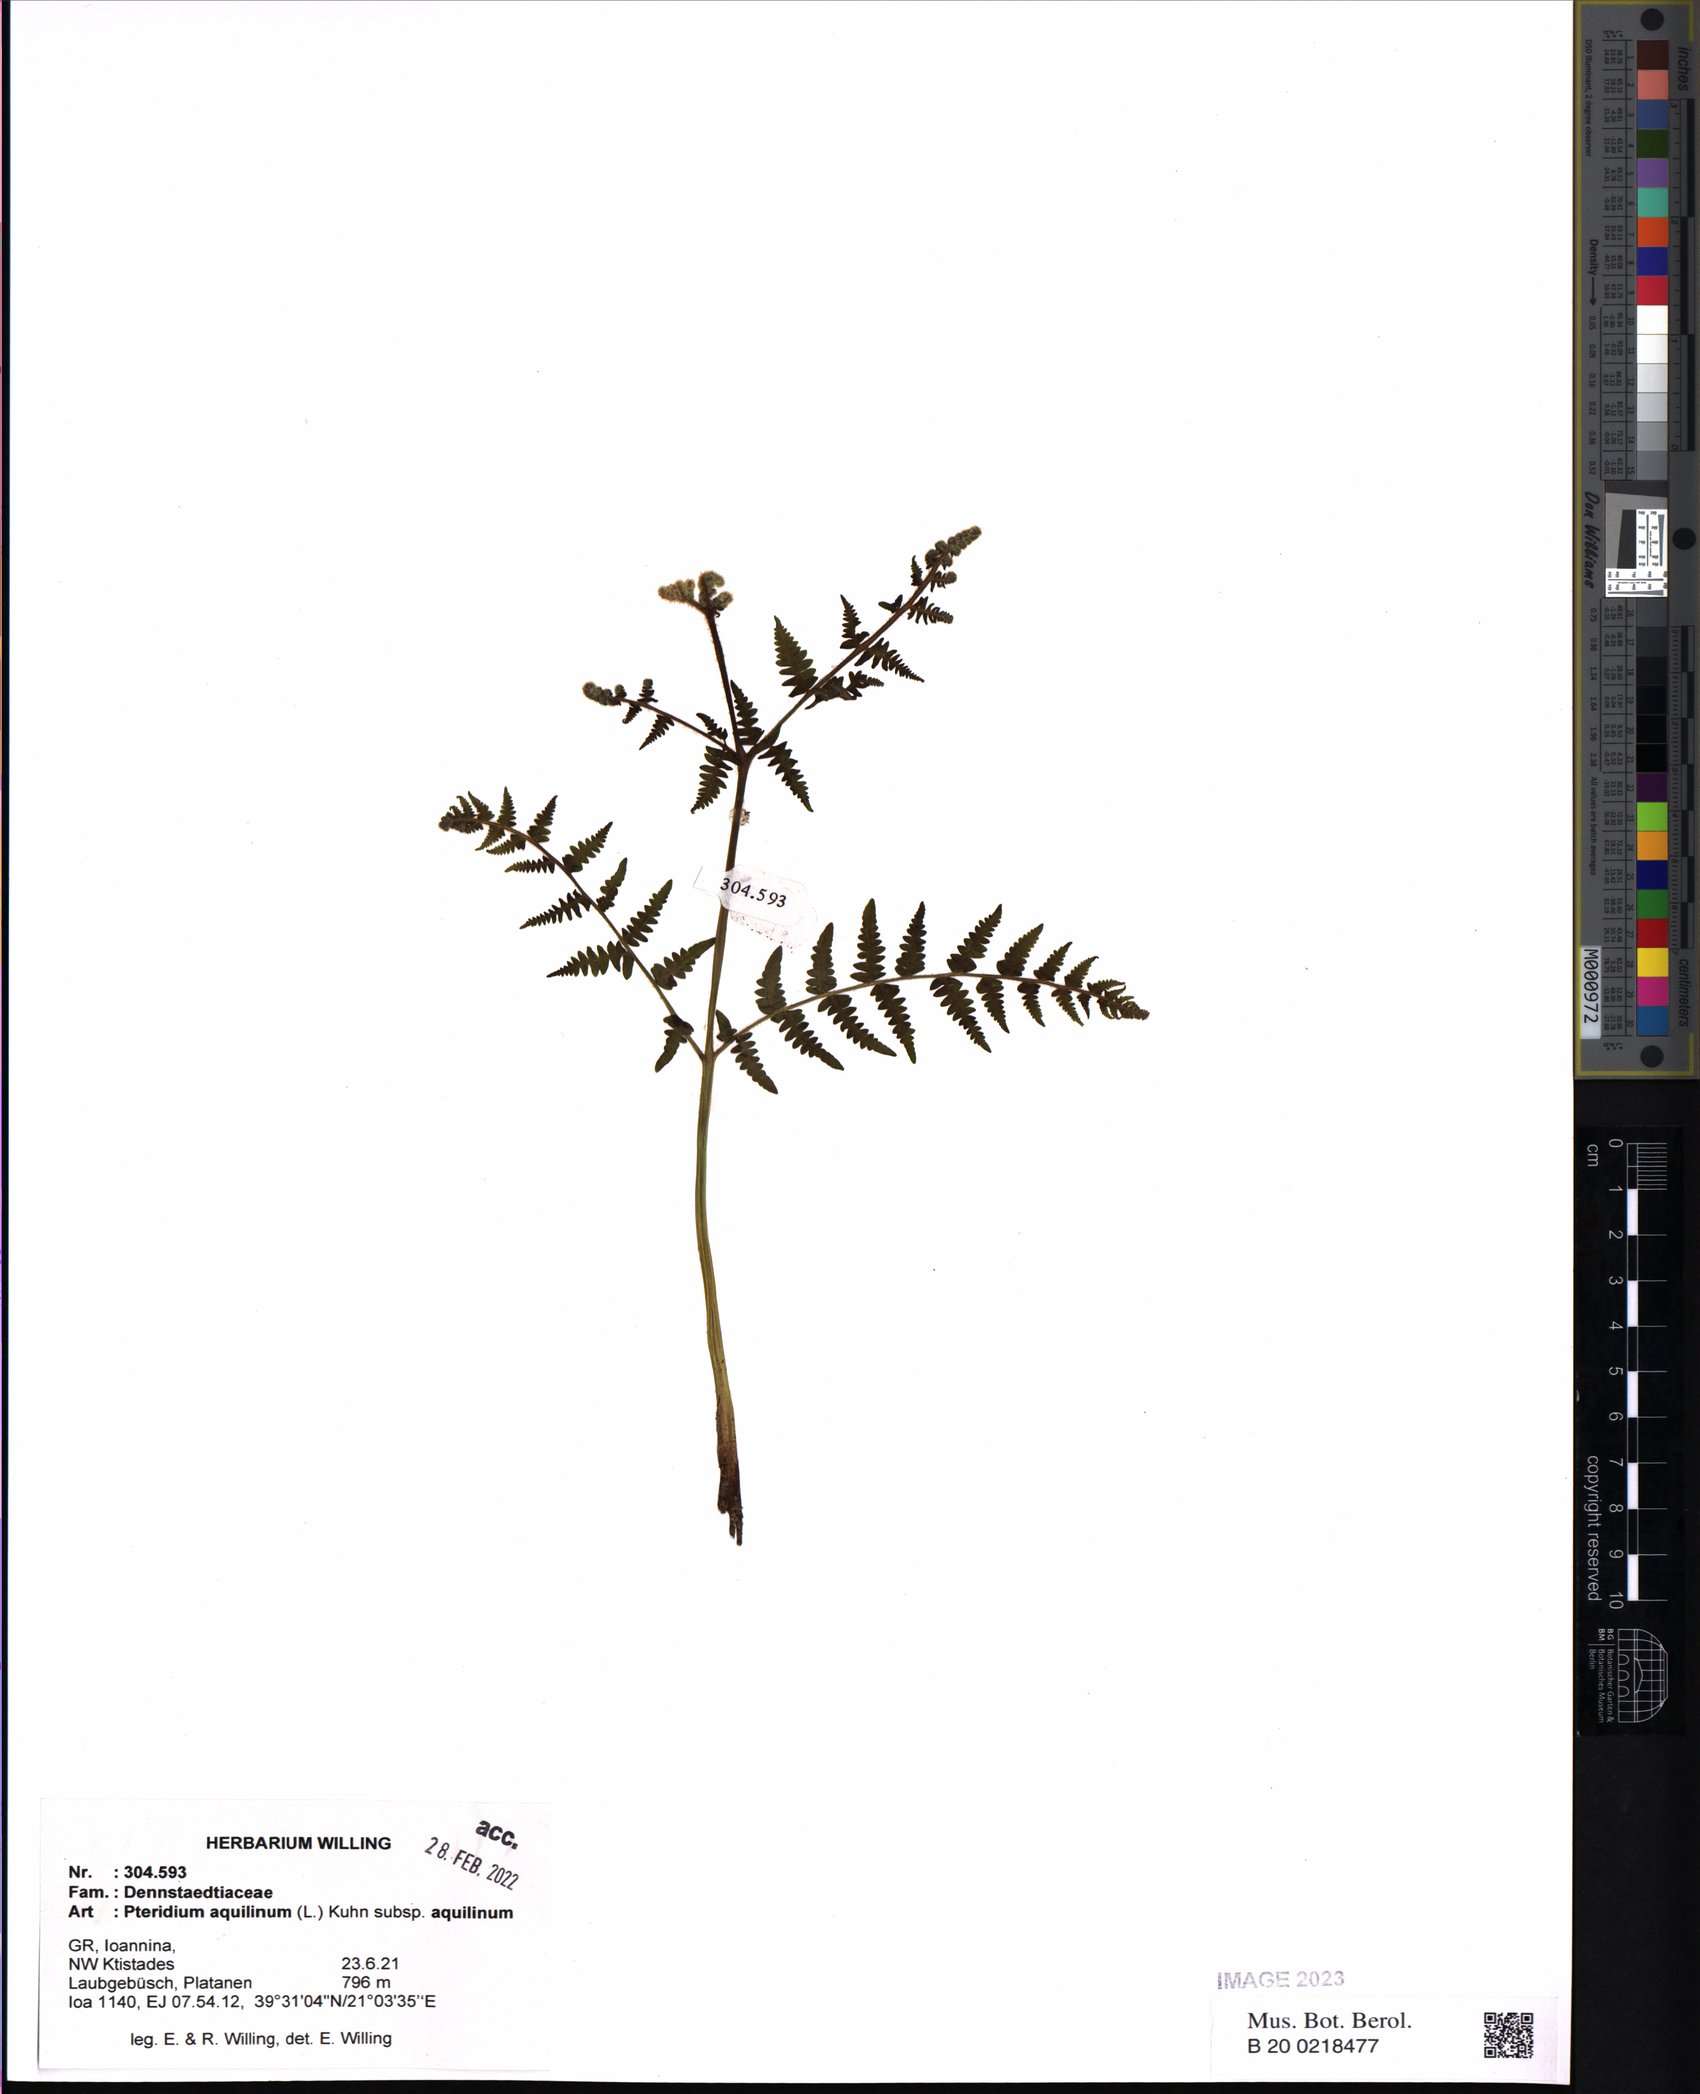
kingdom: Plantae
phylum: Tracheophyta
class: Polypodiopsida
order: Polypodiales
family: Dennstaedtiaceae
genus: Pteridium
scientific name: Pteridium aquilinum
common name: Bracken
